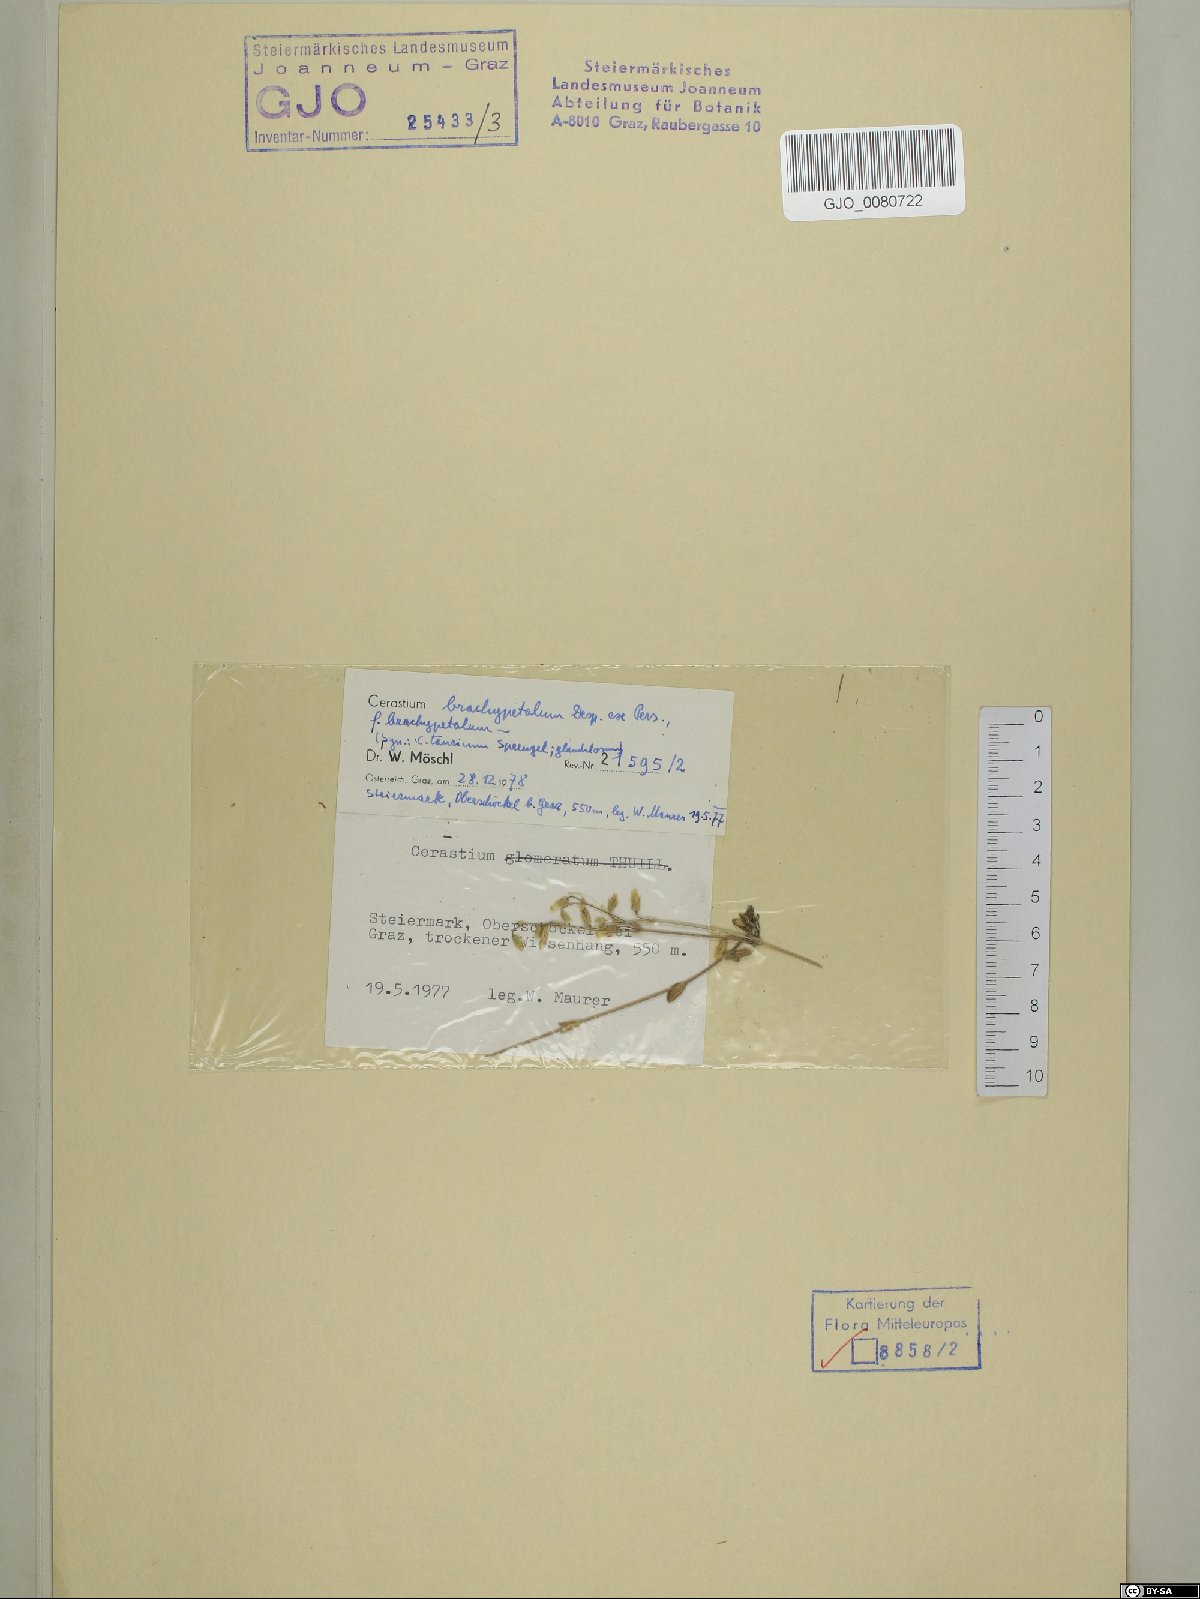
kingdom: Plantae
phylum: Tracheophyta
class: Magnoliopsida
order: Caryophyllales
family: Caryophyllaceae
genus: Cerastium
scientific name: Cerastium brachypetalum
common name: Grey mouse-ear
